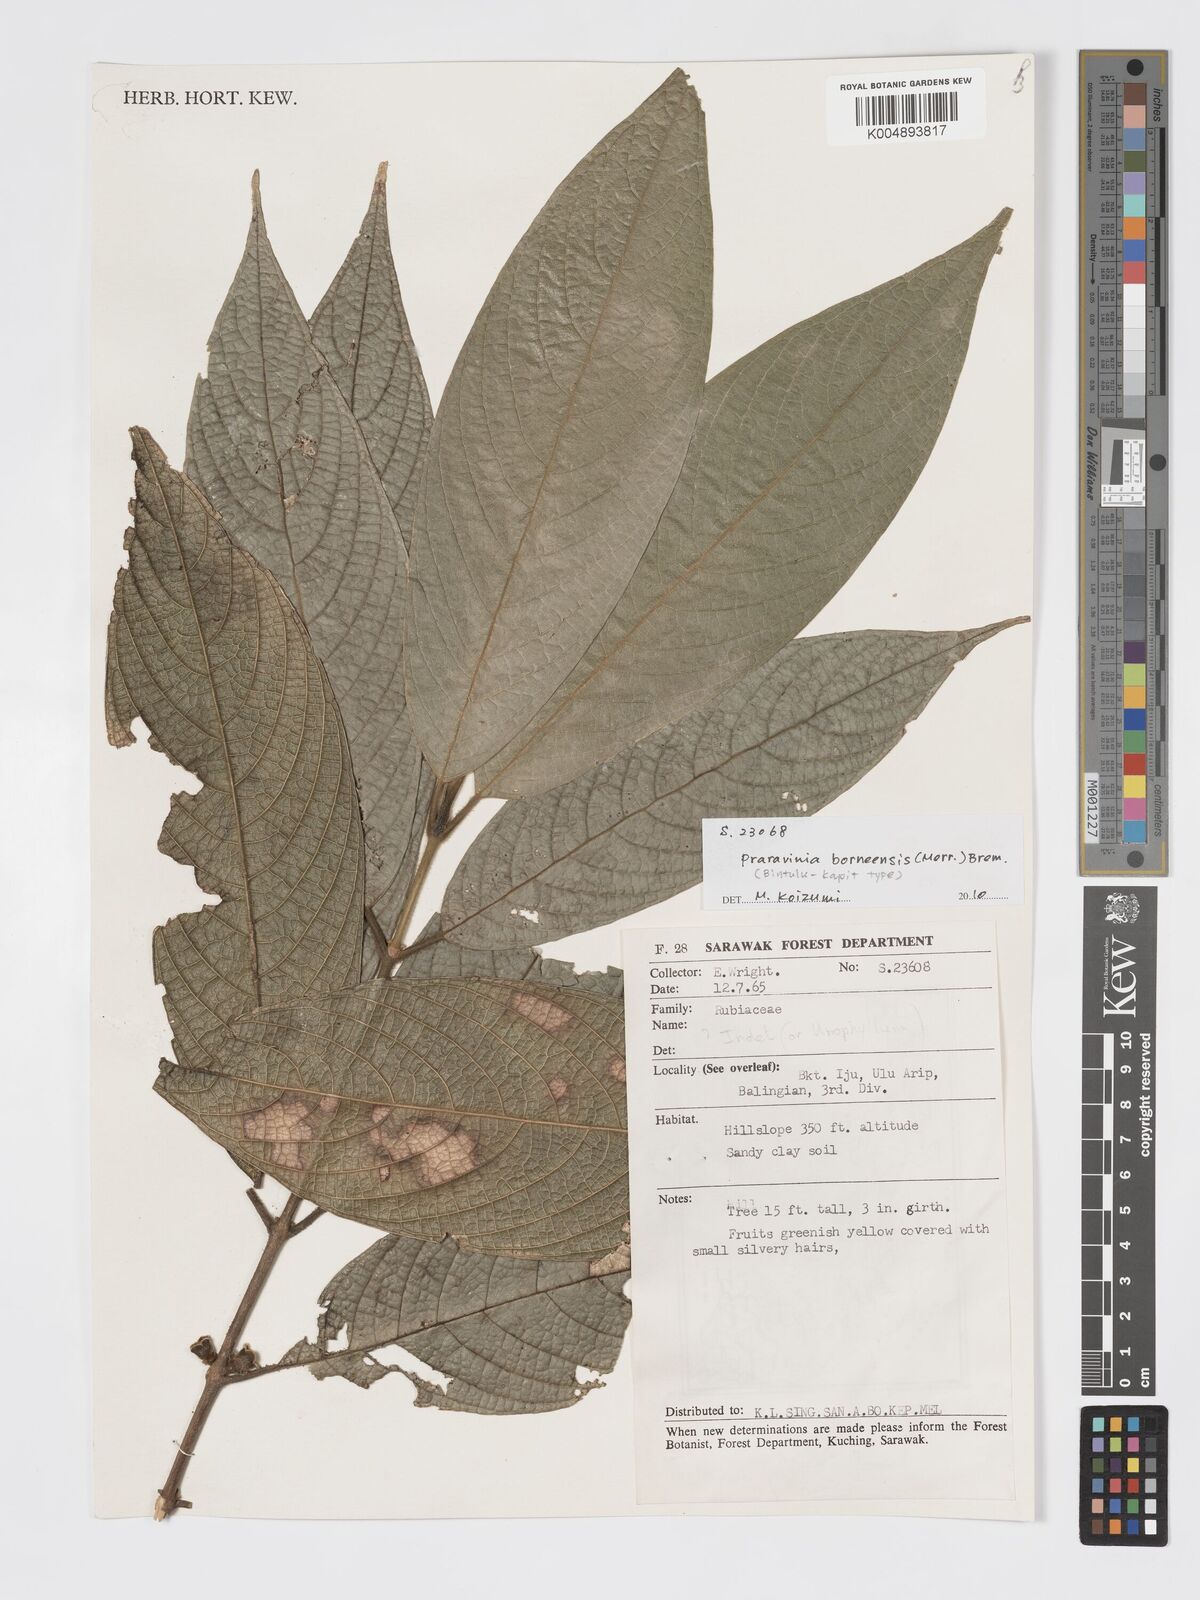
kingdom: Plantae
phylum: Tracheophyta
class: Magnoliopsida
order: Gentianales
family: Rubiaceae
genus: Praravinia
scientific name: Praravinia borneensis
